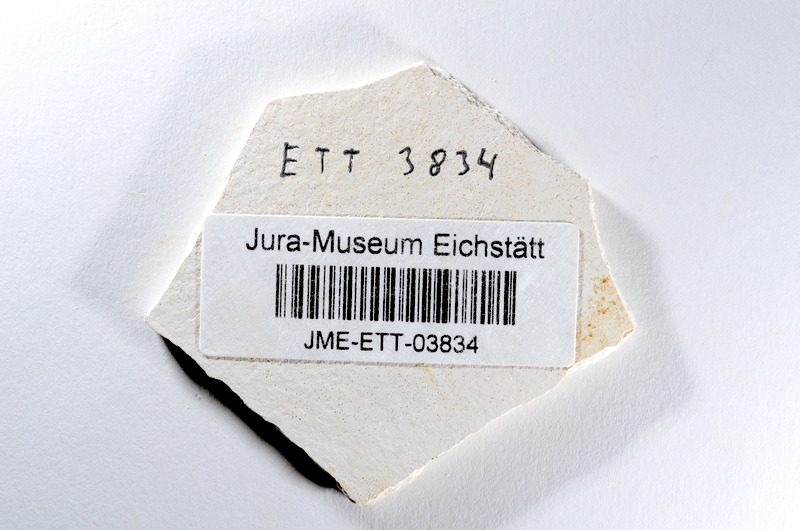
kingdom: Animalia
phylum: Chordata
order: Salmoniformes
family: Orthogonikleithridae
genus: Orthogonikleithrus
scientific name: Orthogonikleithrus hoelli
